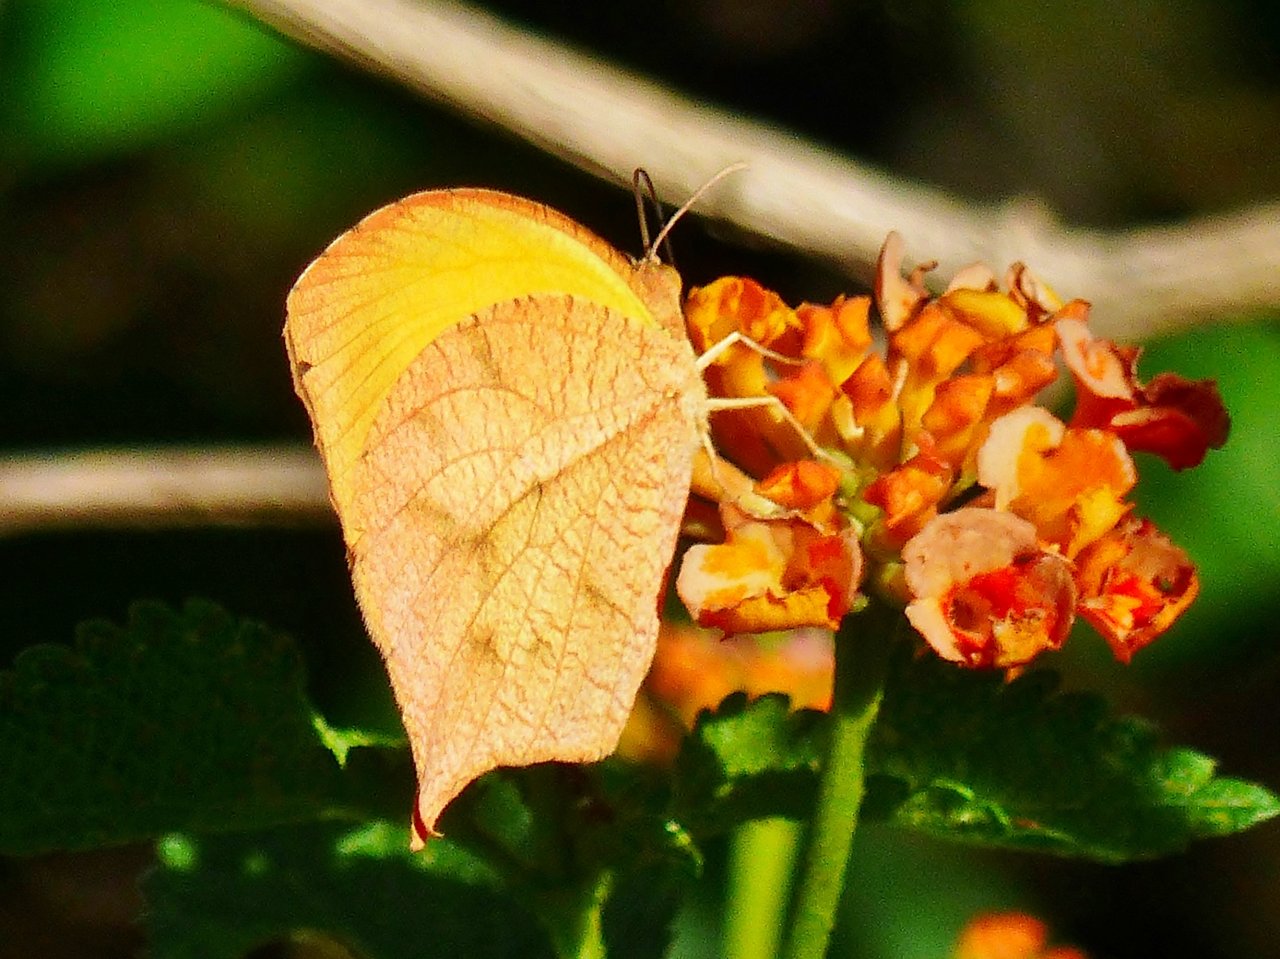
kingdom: Animalia
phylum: Arthropoda
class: Insecta
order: Lepidoptera
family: Pieridae
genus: Pyrisitia
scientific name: Pyrisitia proterpia
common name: Tailed Orange
